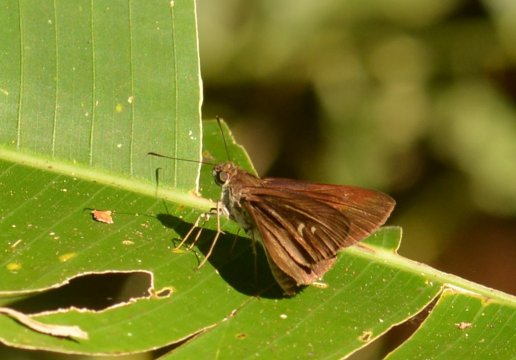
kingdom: Animalia
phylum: Arthropoda
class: Insecta
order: Lepidoptera
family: Hesperiidae
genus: Paracarystus
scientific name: Paracarystus
